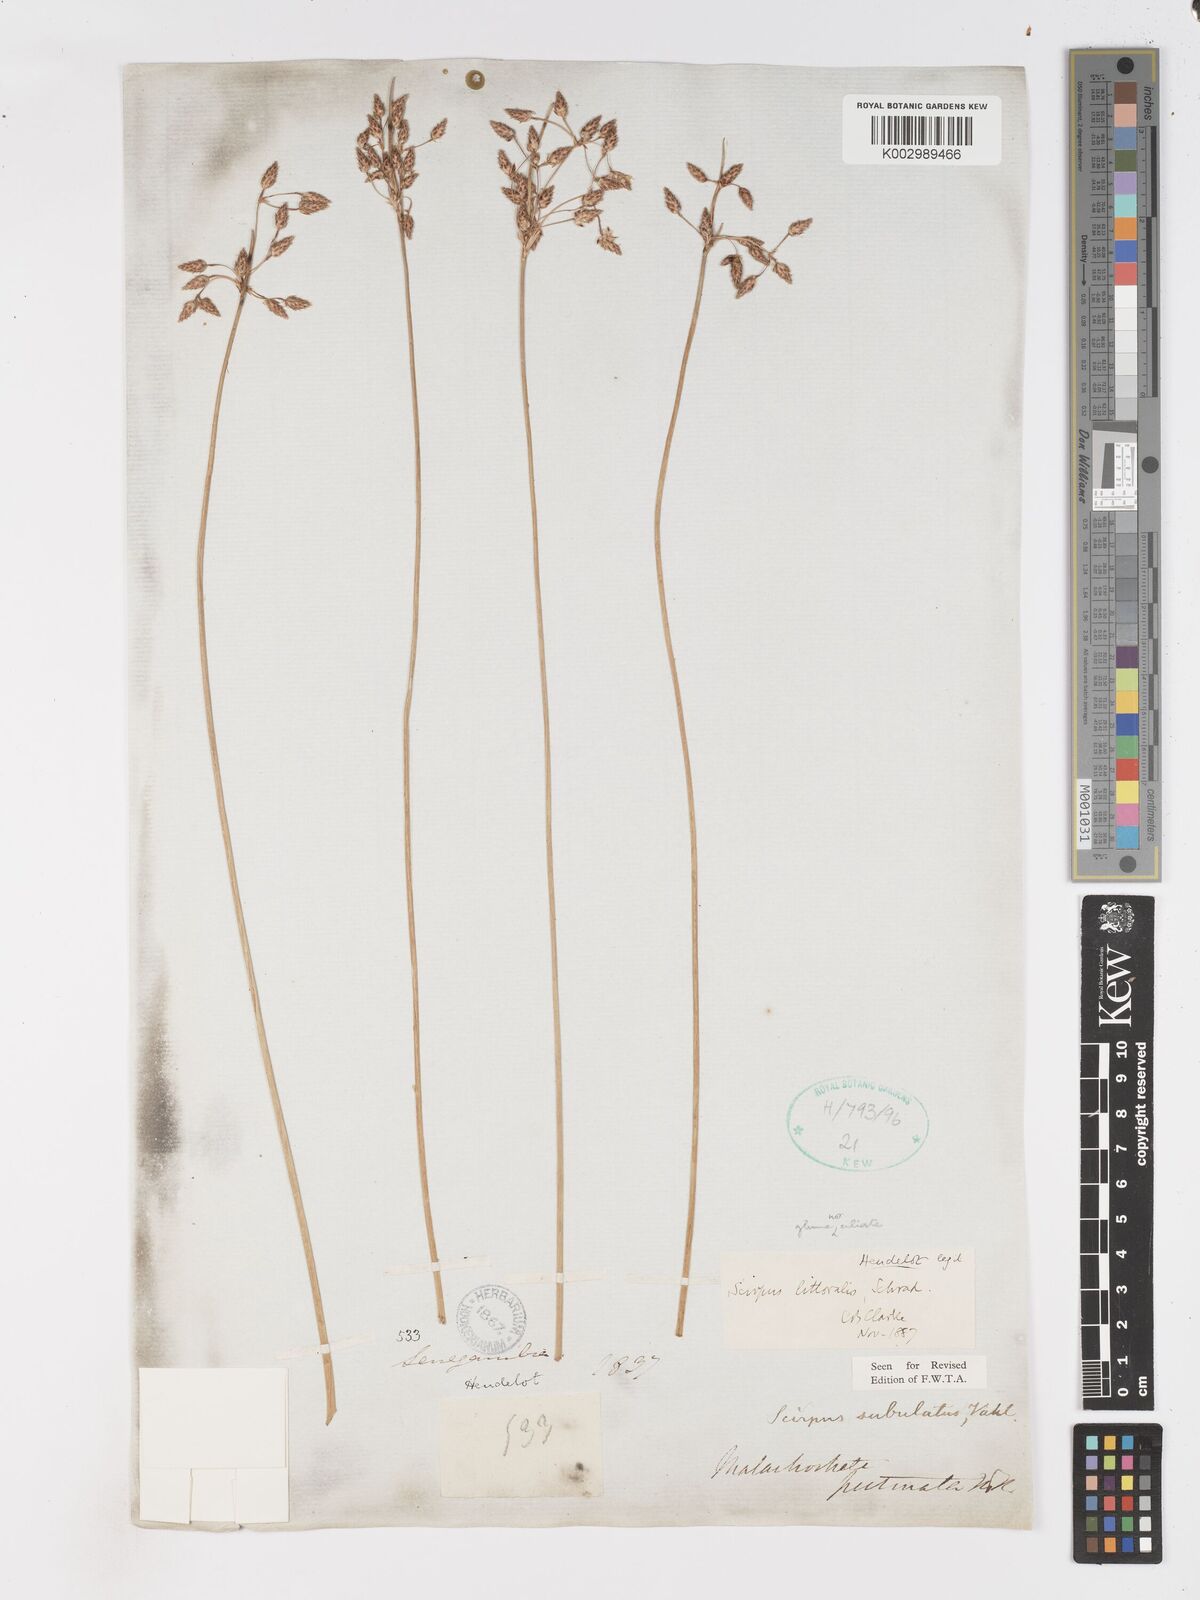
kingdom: Plantae
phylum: Tracheophyta
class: Liliopsida
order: Poales
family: Cyperaceae
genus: Schoenoplectus
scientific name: Schoenoplectus litoralis
